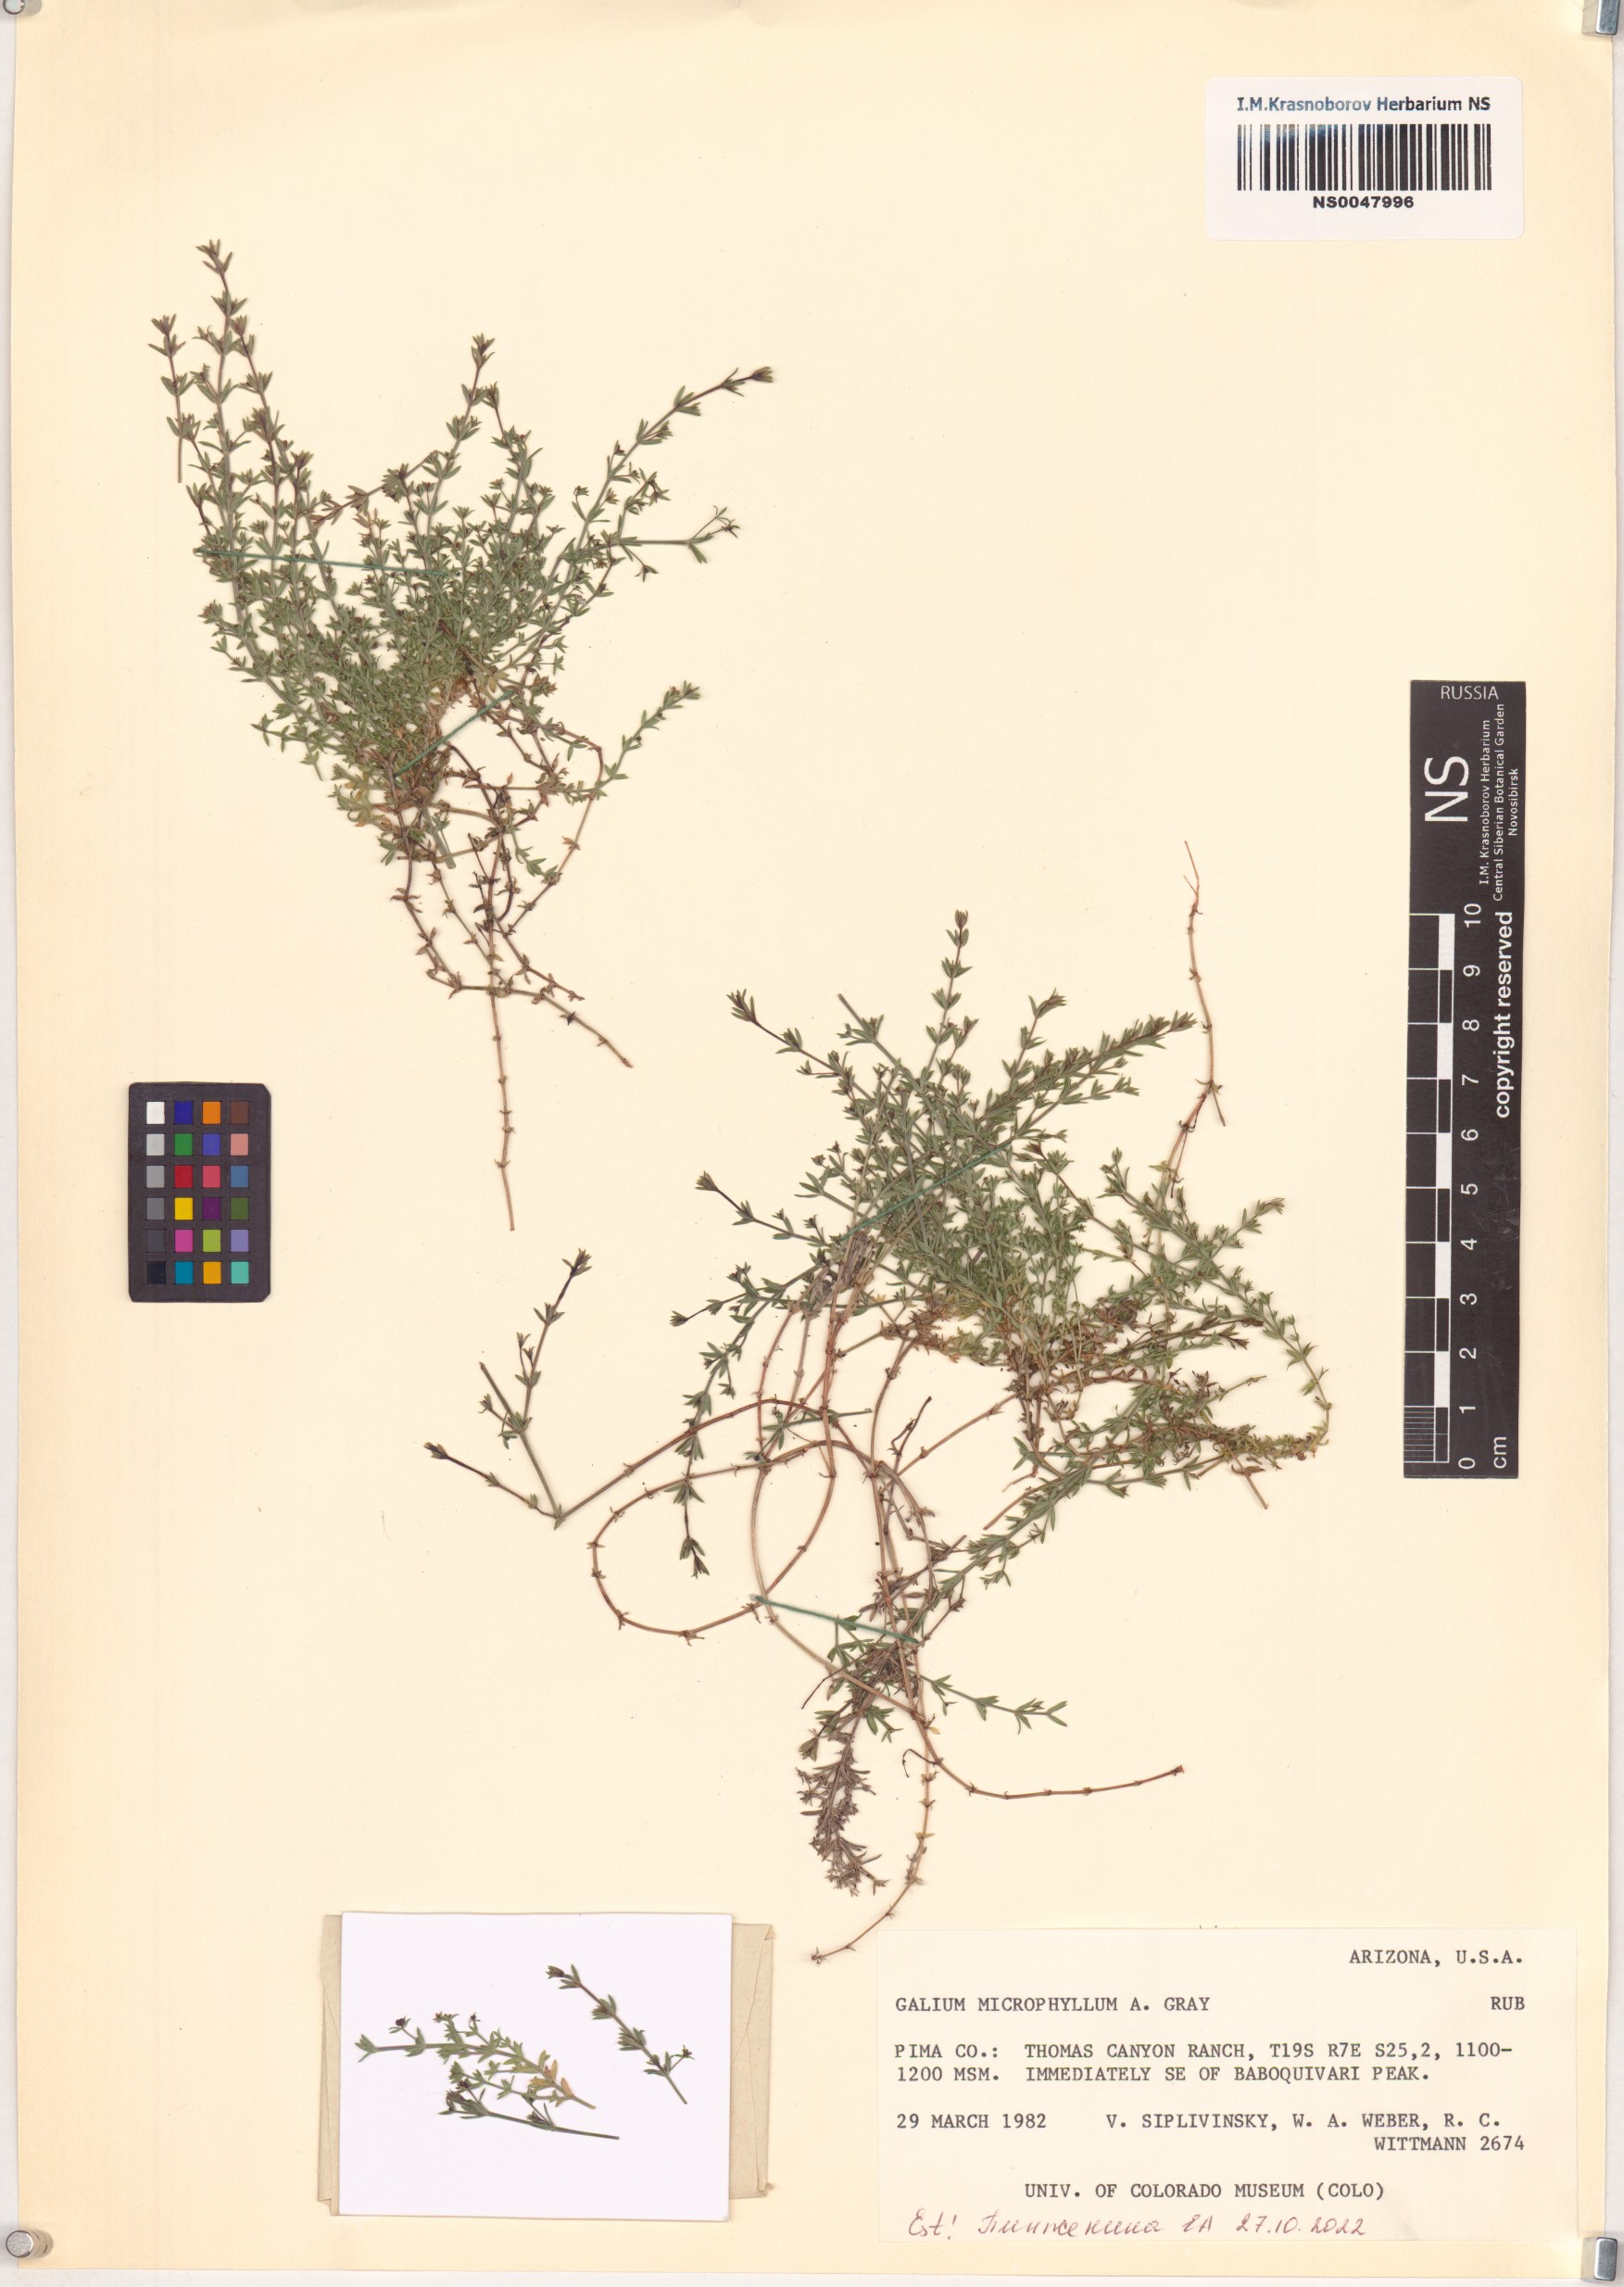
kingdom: Plantae
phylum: Tracheophyta
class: Magnoliopsida
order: Gentianales
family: Rubiaceae
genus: Galium
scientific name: Galium microphyllum
